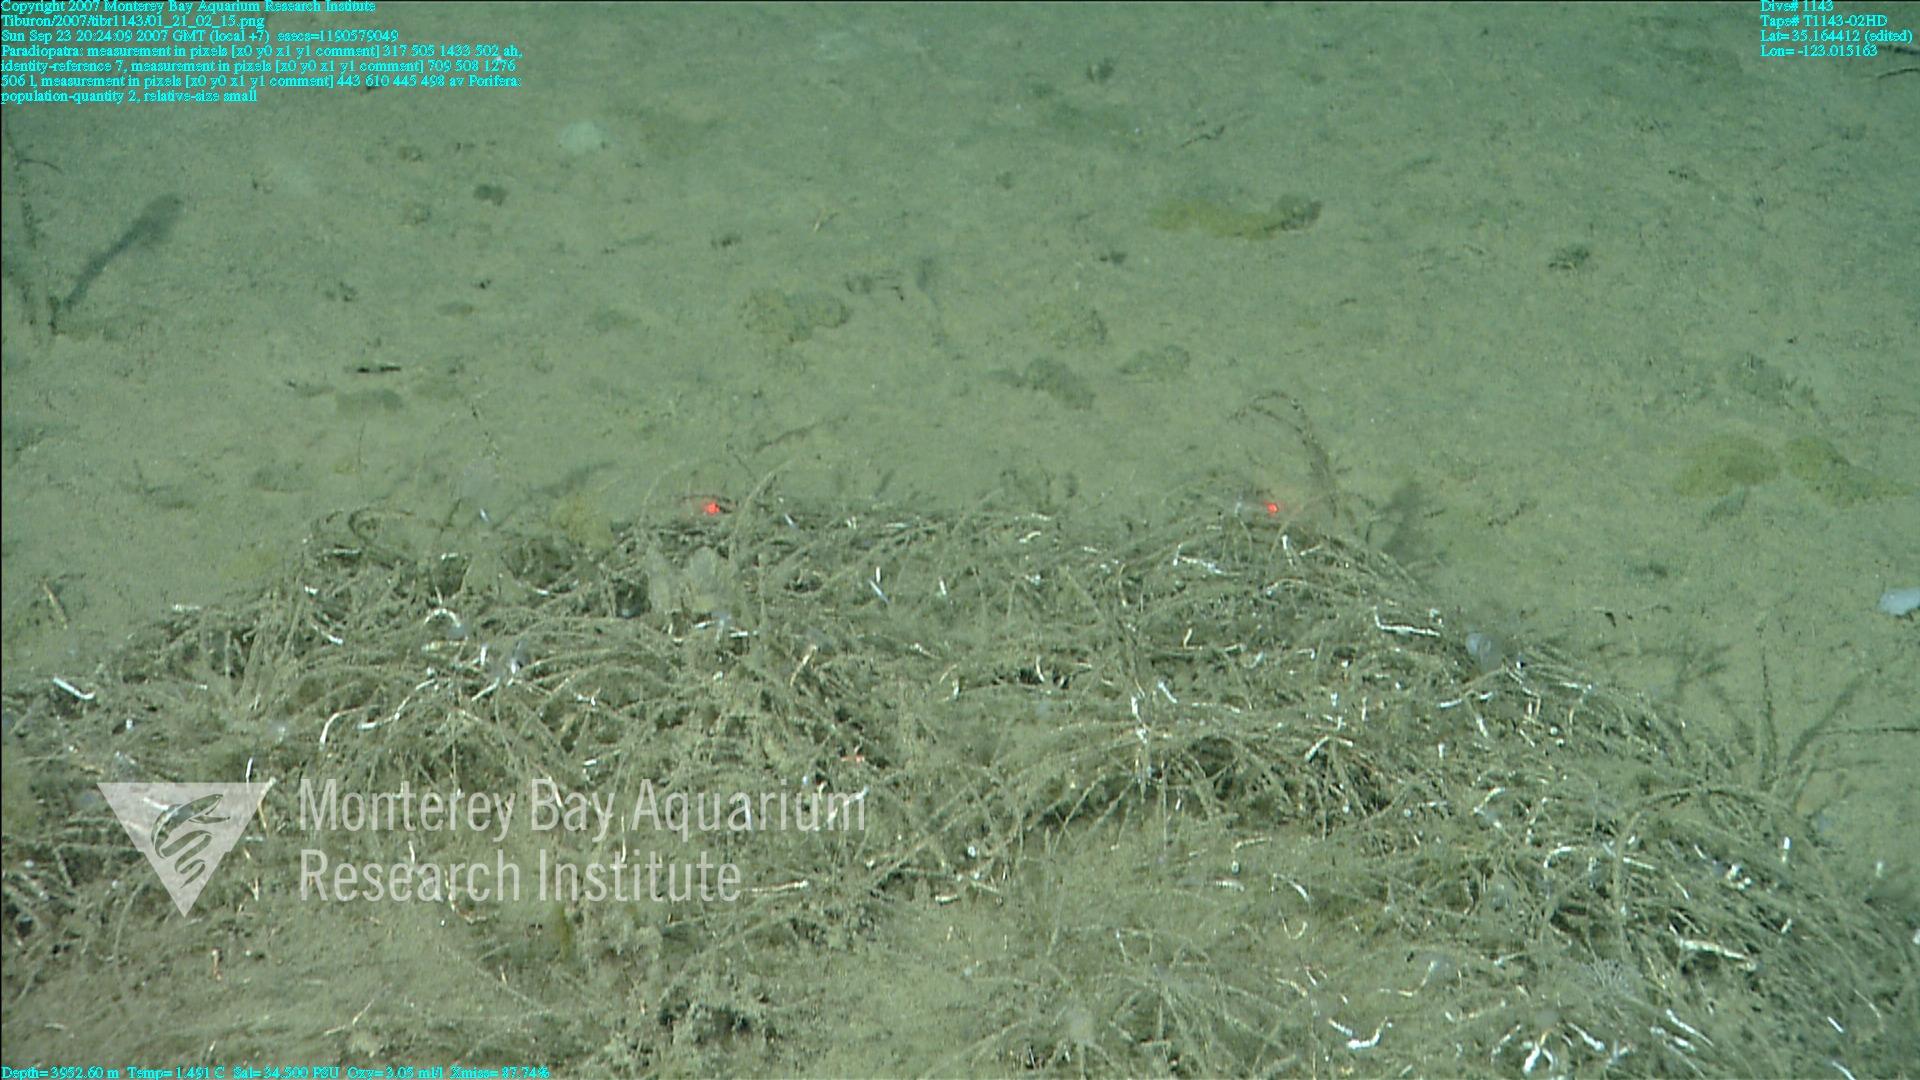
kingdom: Animalia
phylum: Porifera
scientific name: Porifera
